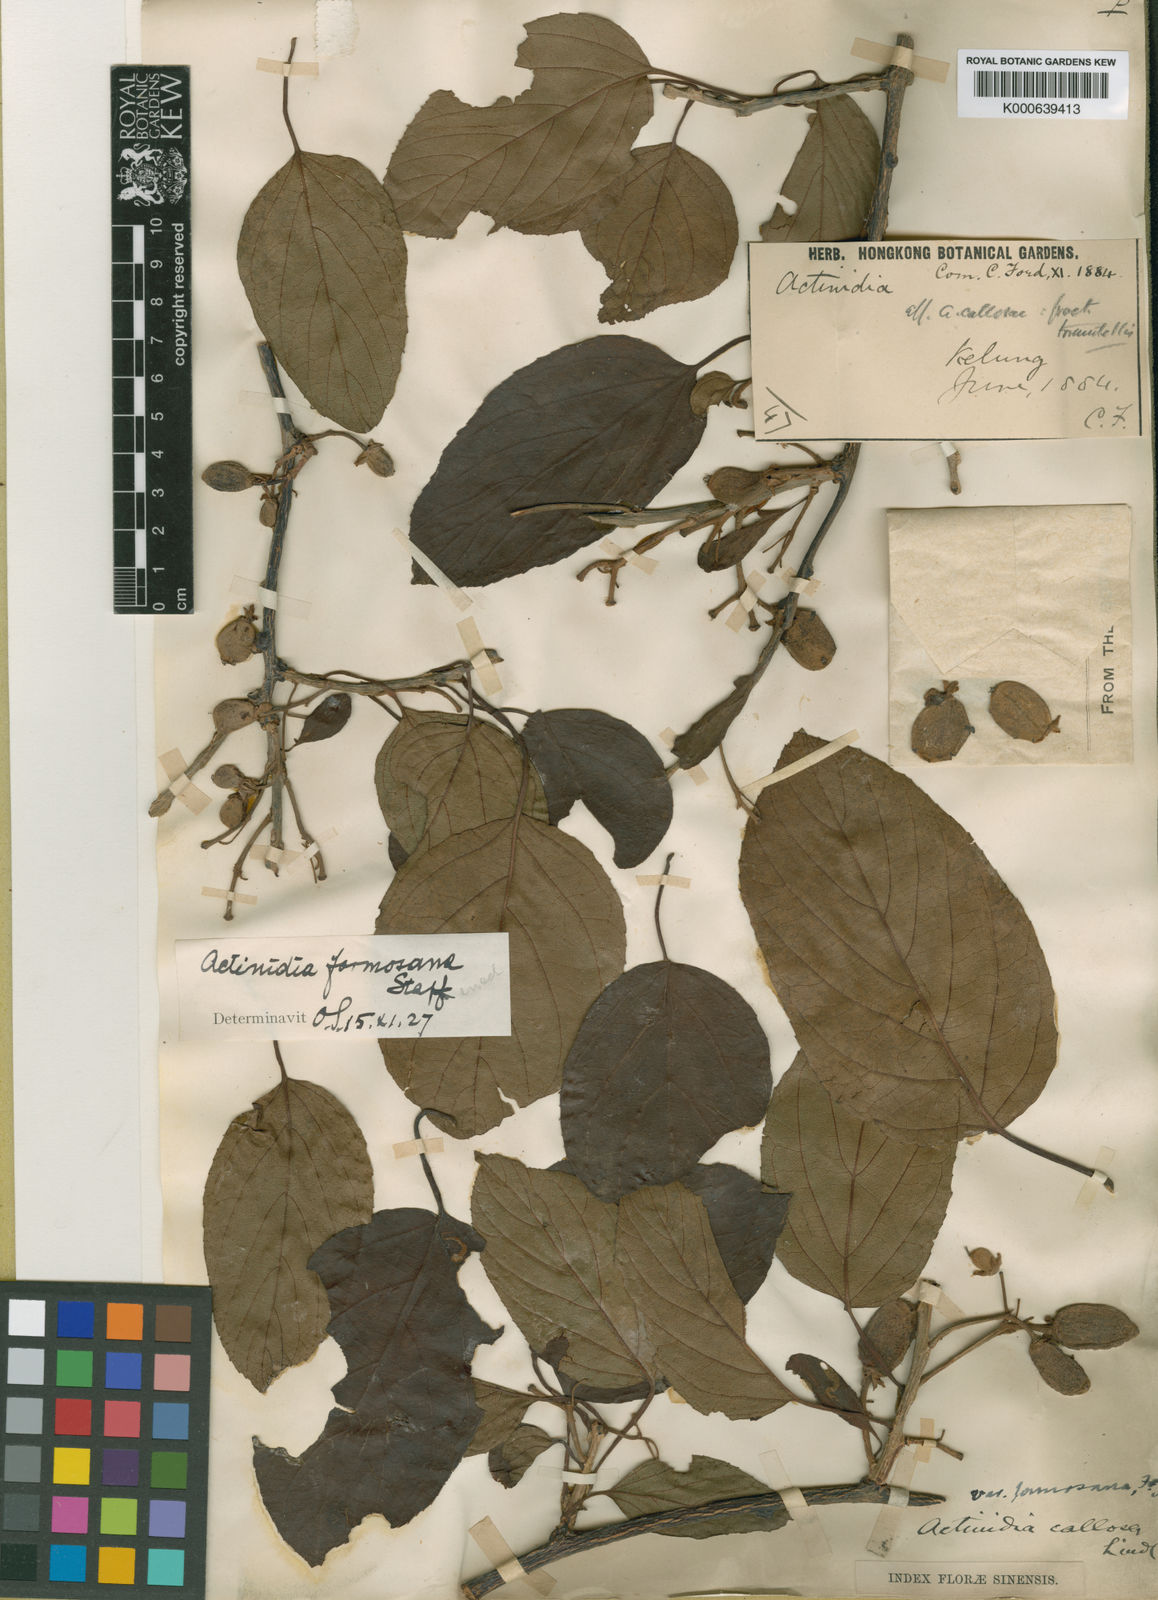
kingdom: Plantae
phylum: Tracheophyta
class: Magnoliopsida
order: Ericales
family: Actinidiaceae
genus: Actinidia
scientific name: Actinidia callosa
